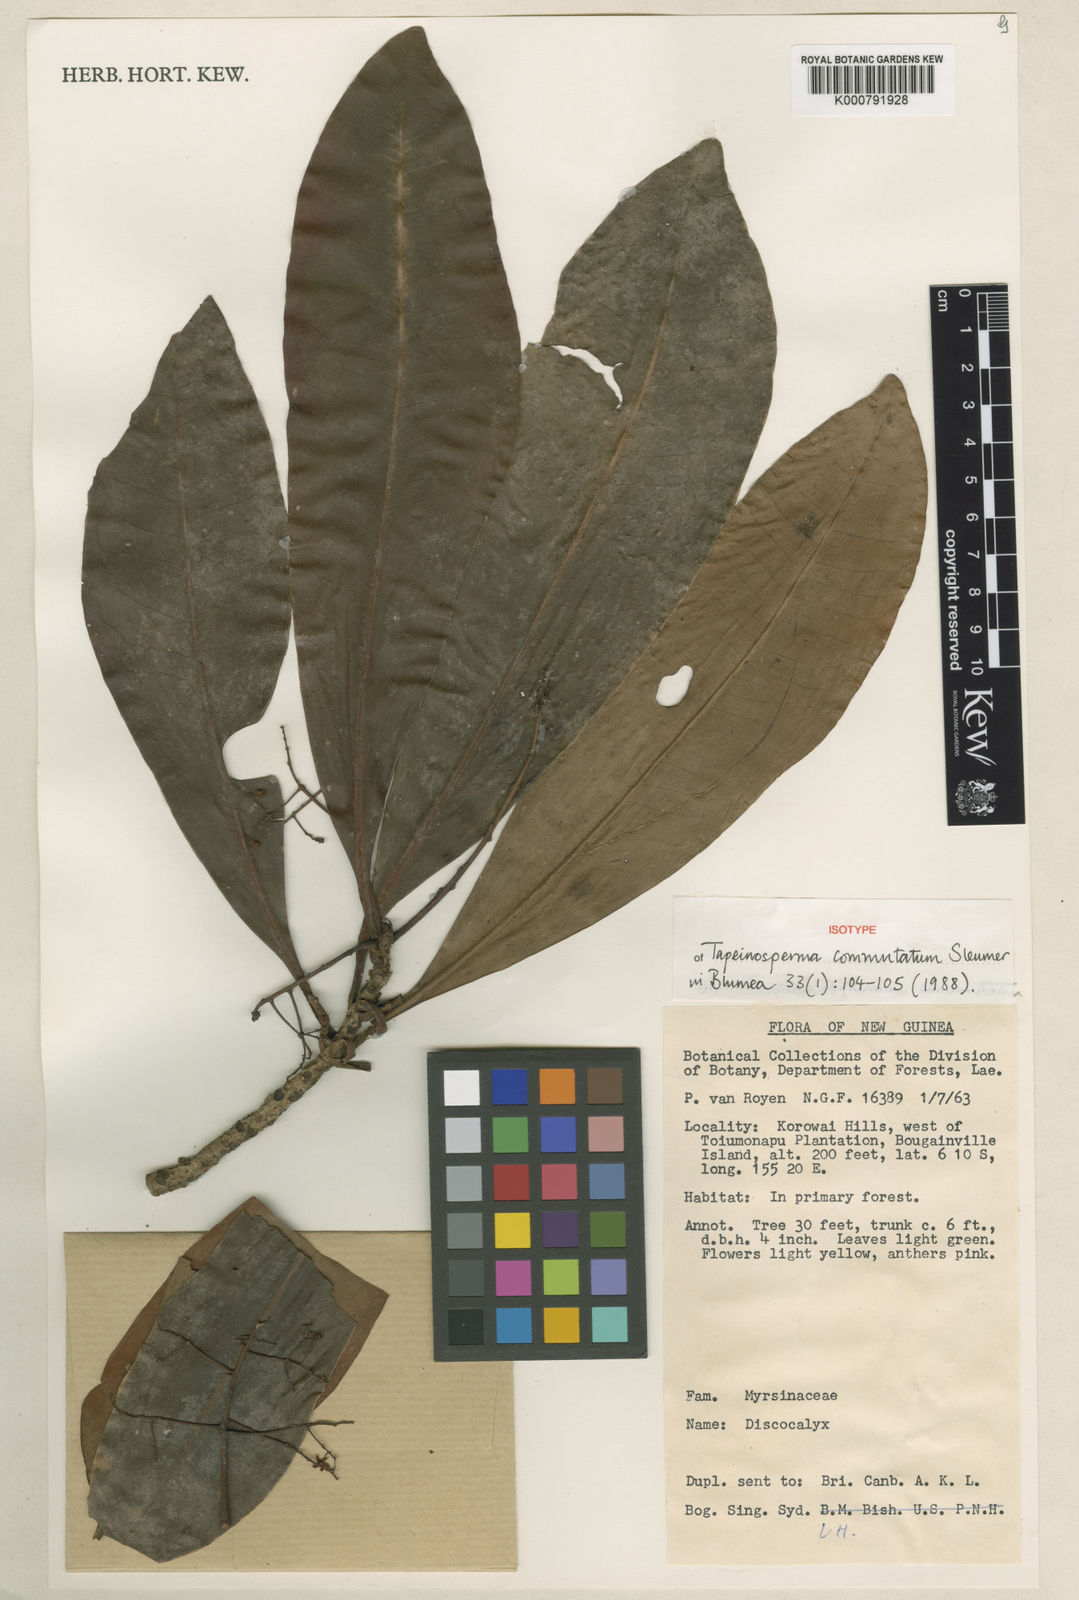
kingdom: Plantae
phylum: Tracheophyta
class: Magnoliopsida
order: Ericales
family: Primulaceae
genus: Tapeinosperma
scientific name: Tapeinosperma commutatum
